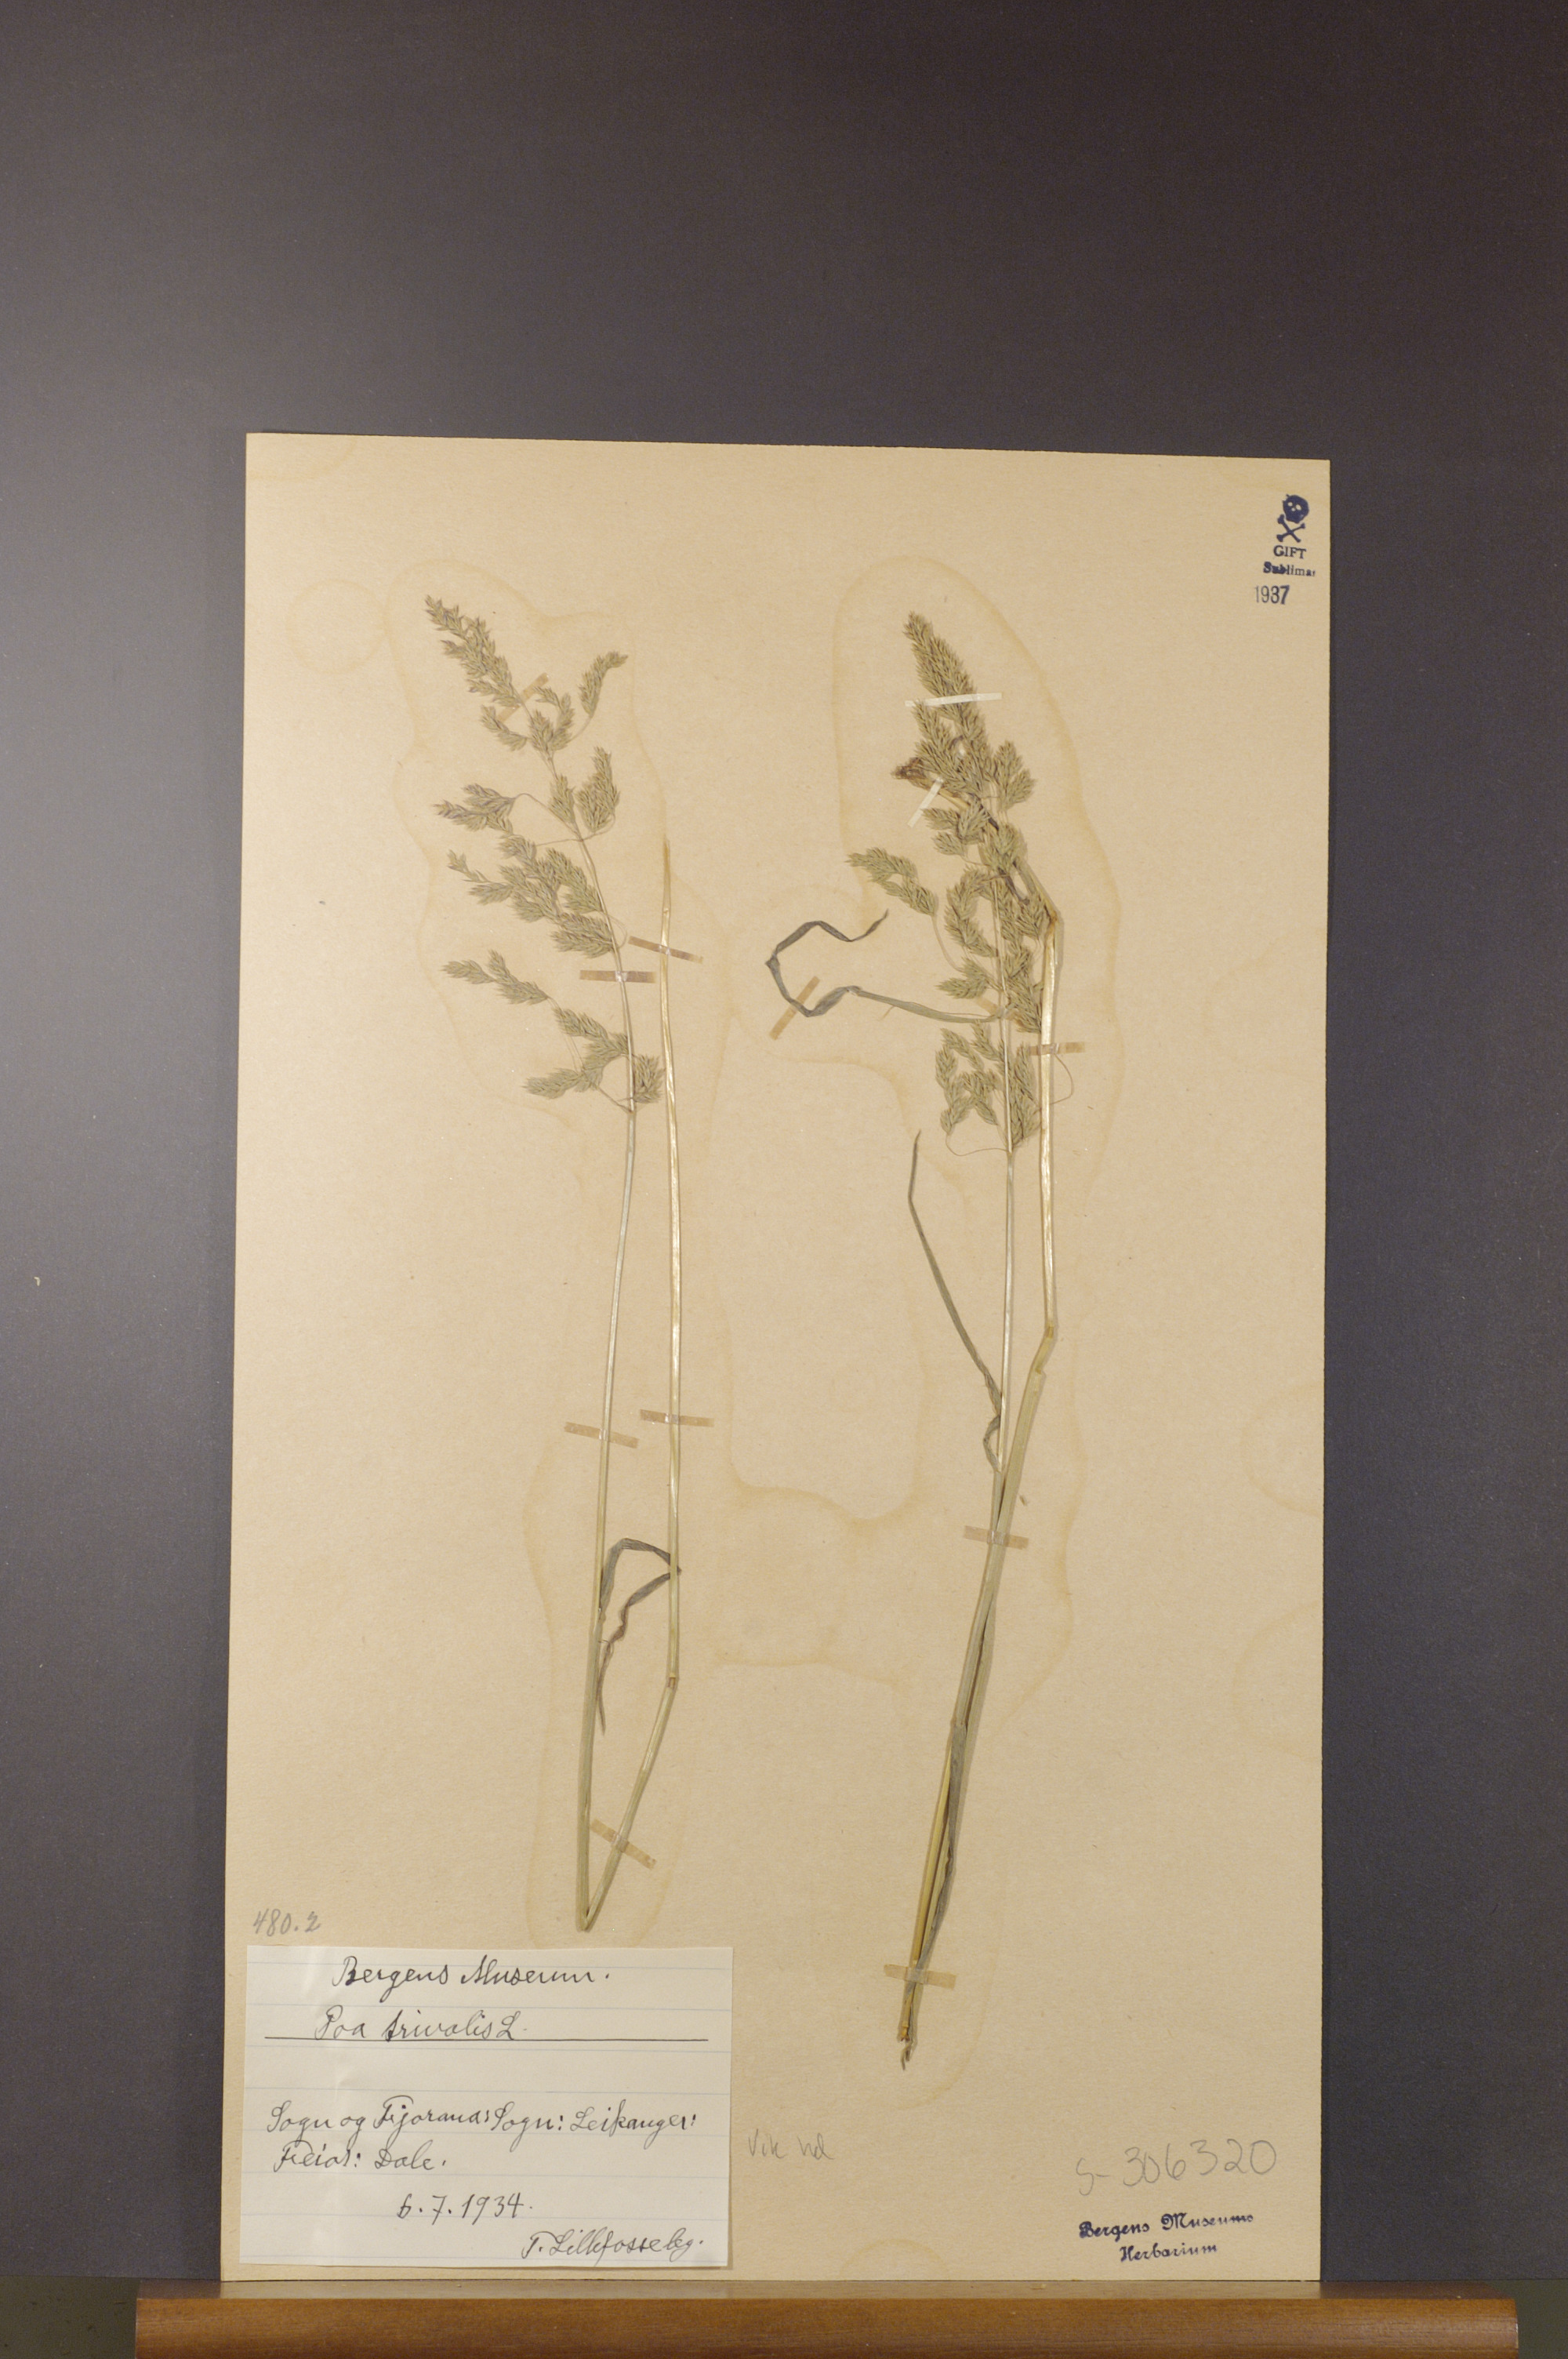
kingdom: Plantae
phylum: Tracheophyta
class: Liliopsida
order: Poales
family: Poaceae
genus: Poa
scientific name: Poa trivialis
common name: Rough bluegrass
